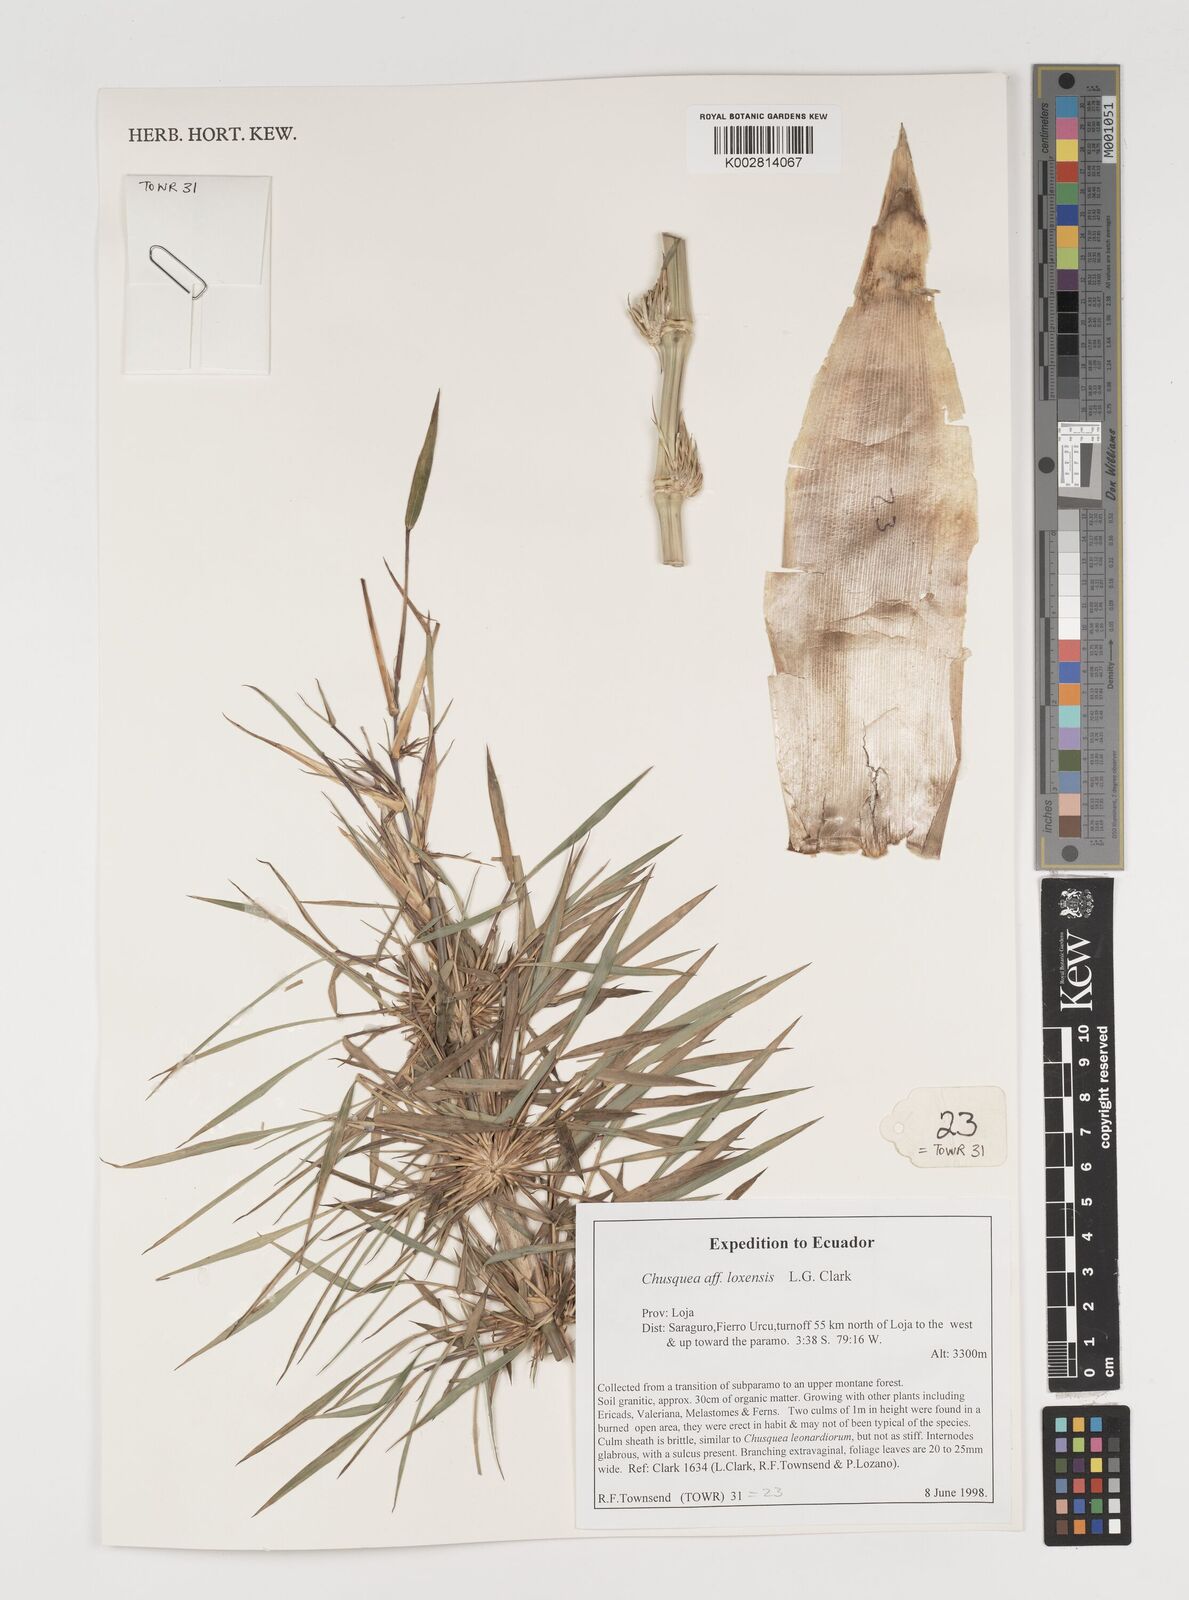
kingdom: Plantae
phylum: Tracheophyta
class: Liliopsida
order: Poales
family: Poaceae
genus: Chusquea
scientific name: Chusquea
